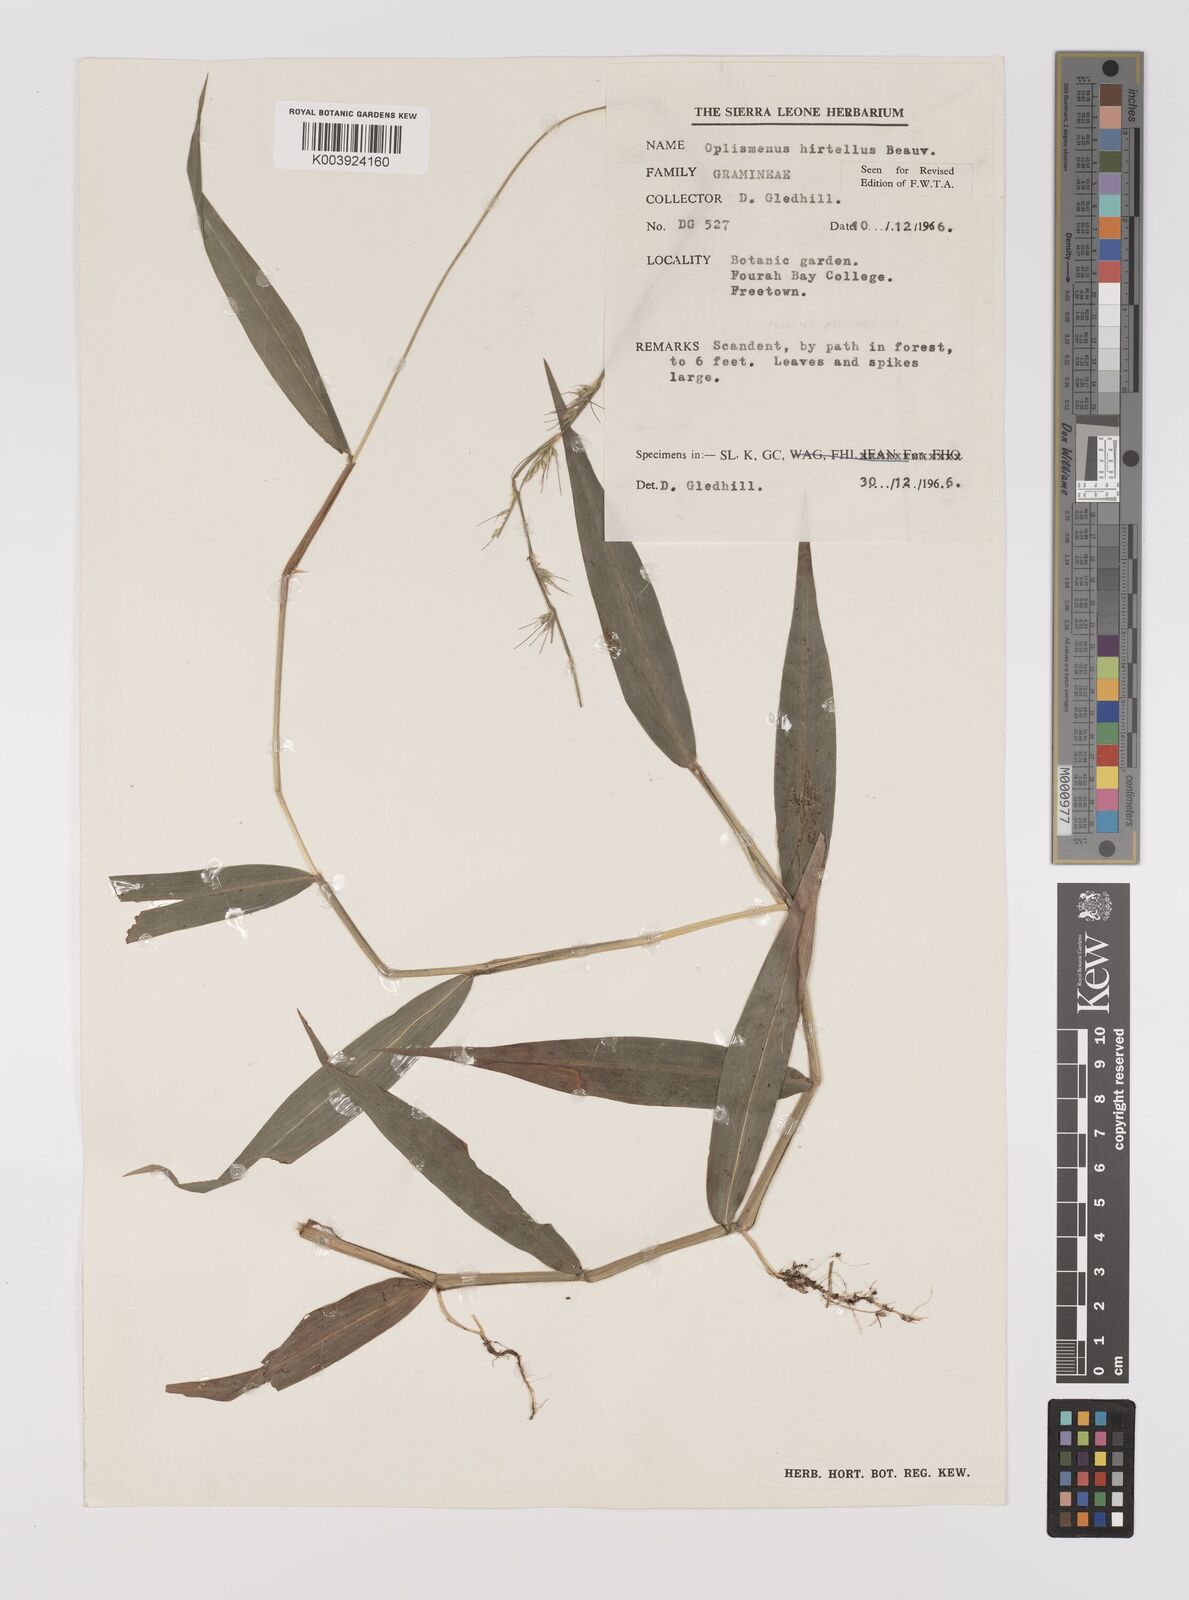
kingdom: Plantae
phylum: Tracheophyta
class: Liliopsida
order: Poales
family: Poaceae
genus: Oplismenus
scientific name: Oplismenus hirtellus
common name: Basketgrass
